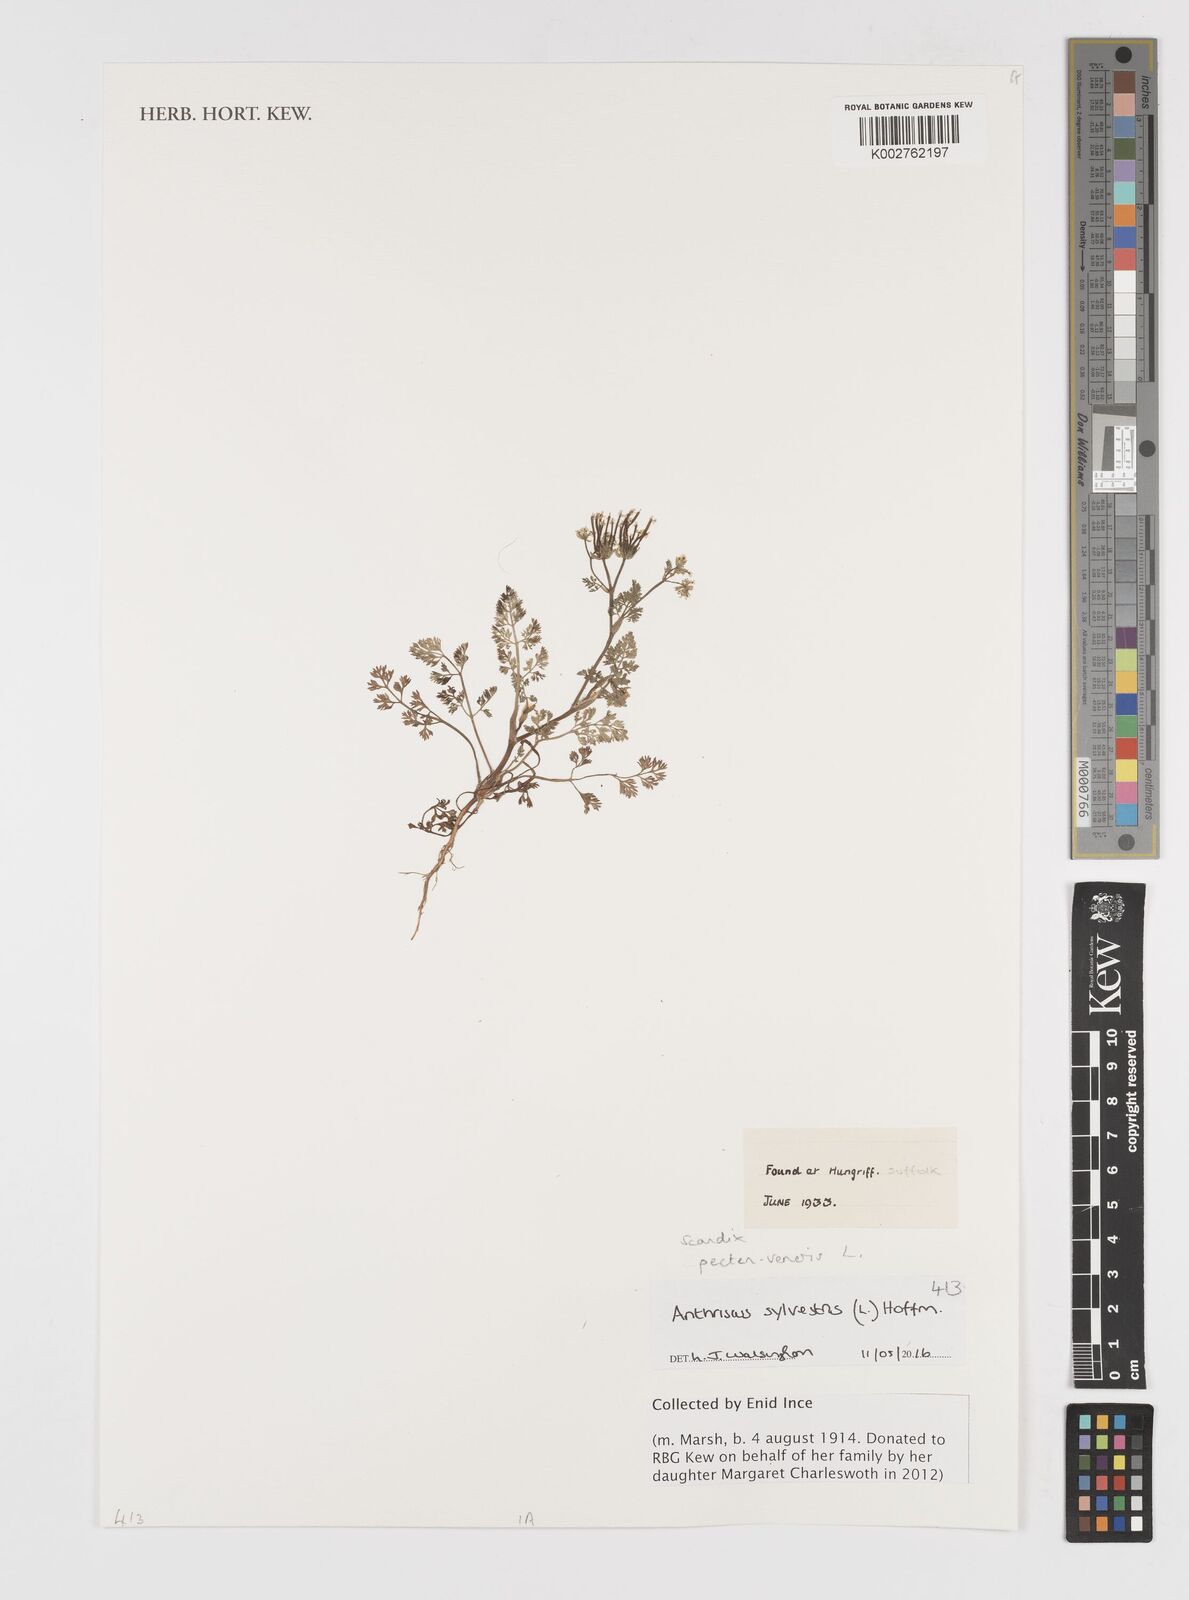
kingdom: Plantae
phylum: Tracheophyta
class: Magnoliopsida
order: Apiales
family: Apiaceae
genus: Scandix
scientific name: Scandix pecten-veneris
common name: Shepherd's-needle
